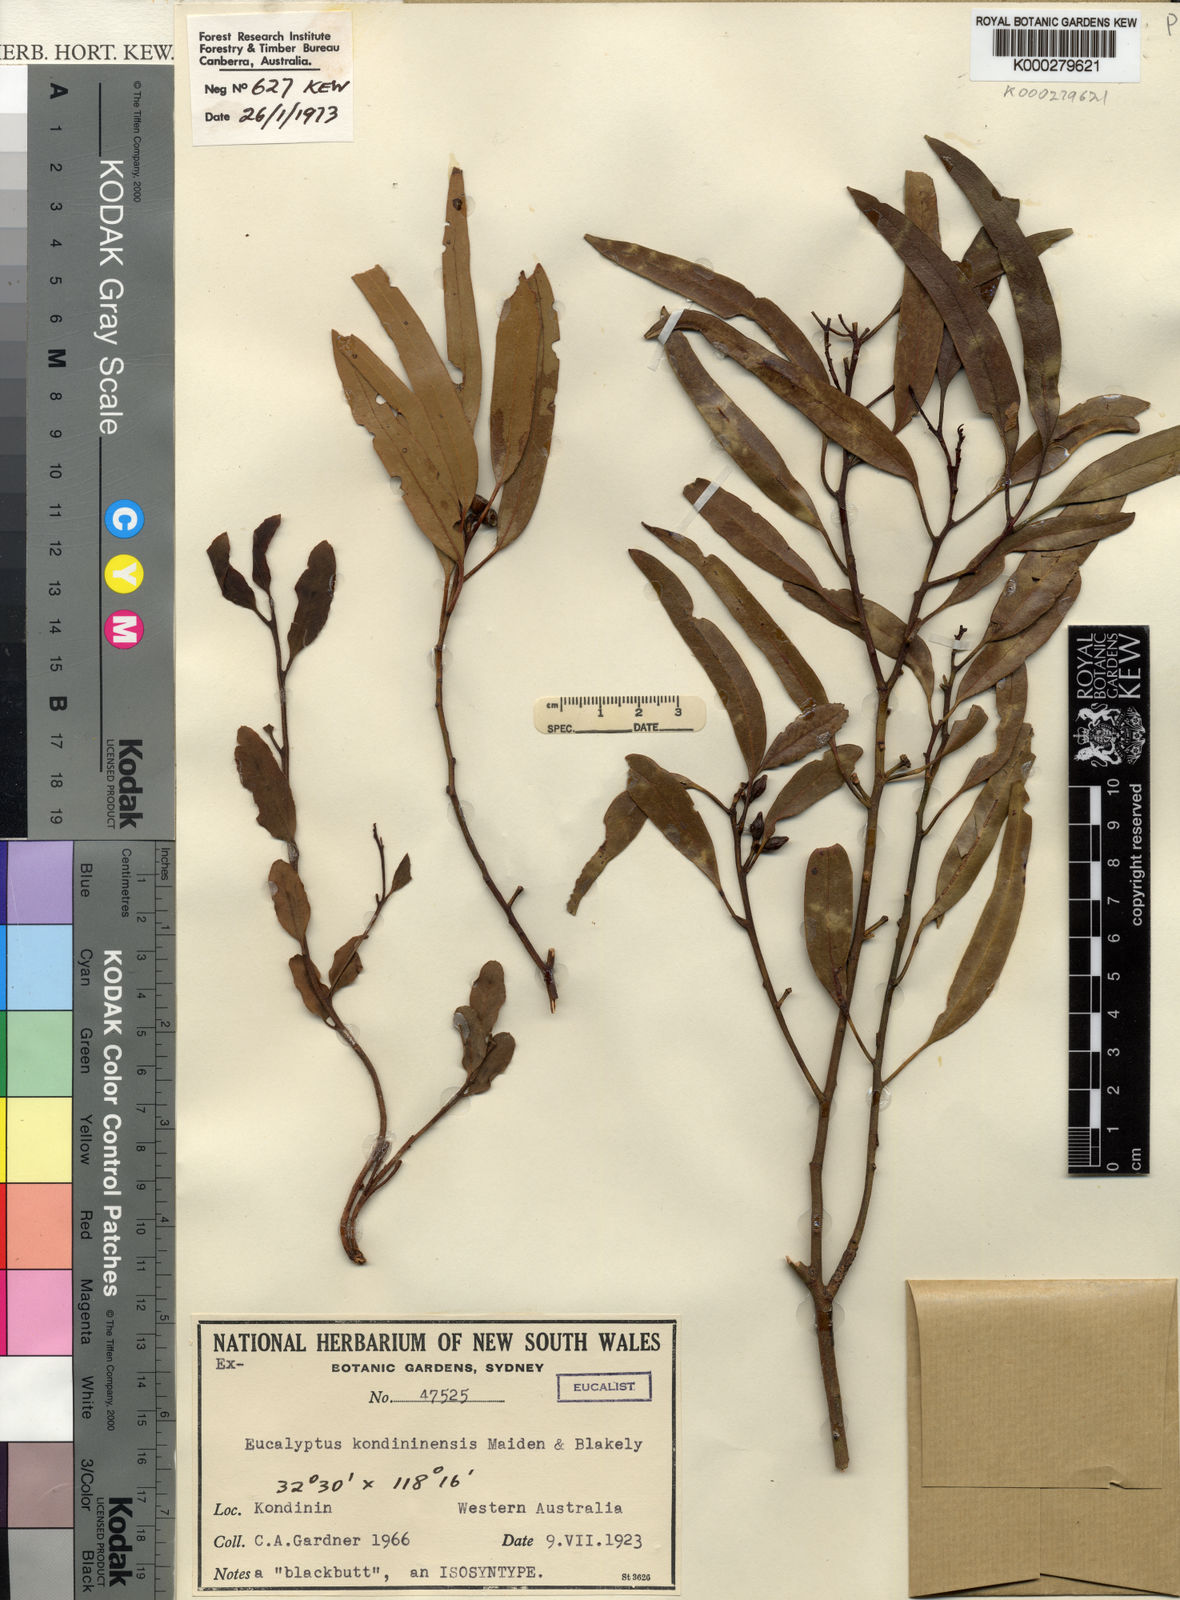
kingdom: Plantae
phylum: Tracheophyta
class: Magnoliopsida
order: Myrtales
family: Myrtaceae
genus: Eucalyptus
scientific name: Eucalyptus kondininensis
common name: Kondinin blackbutt
